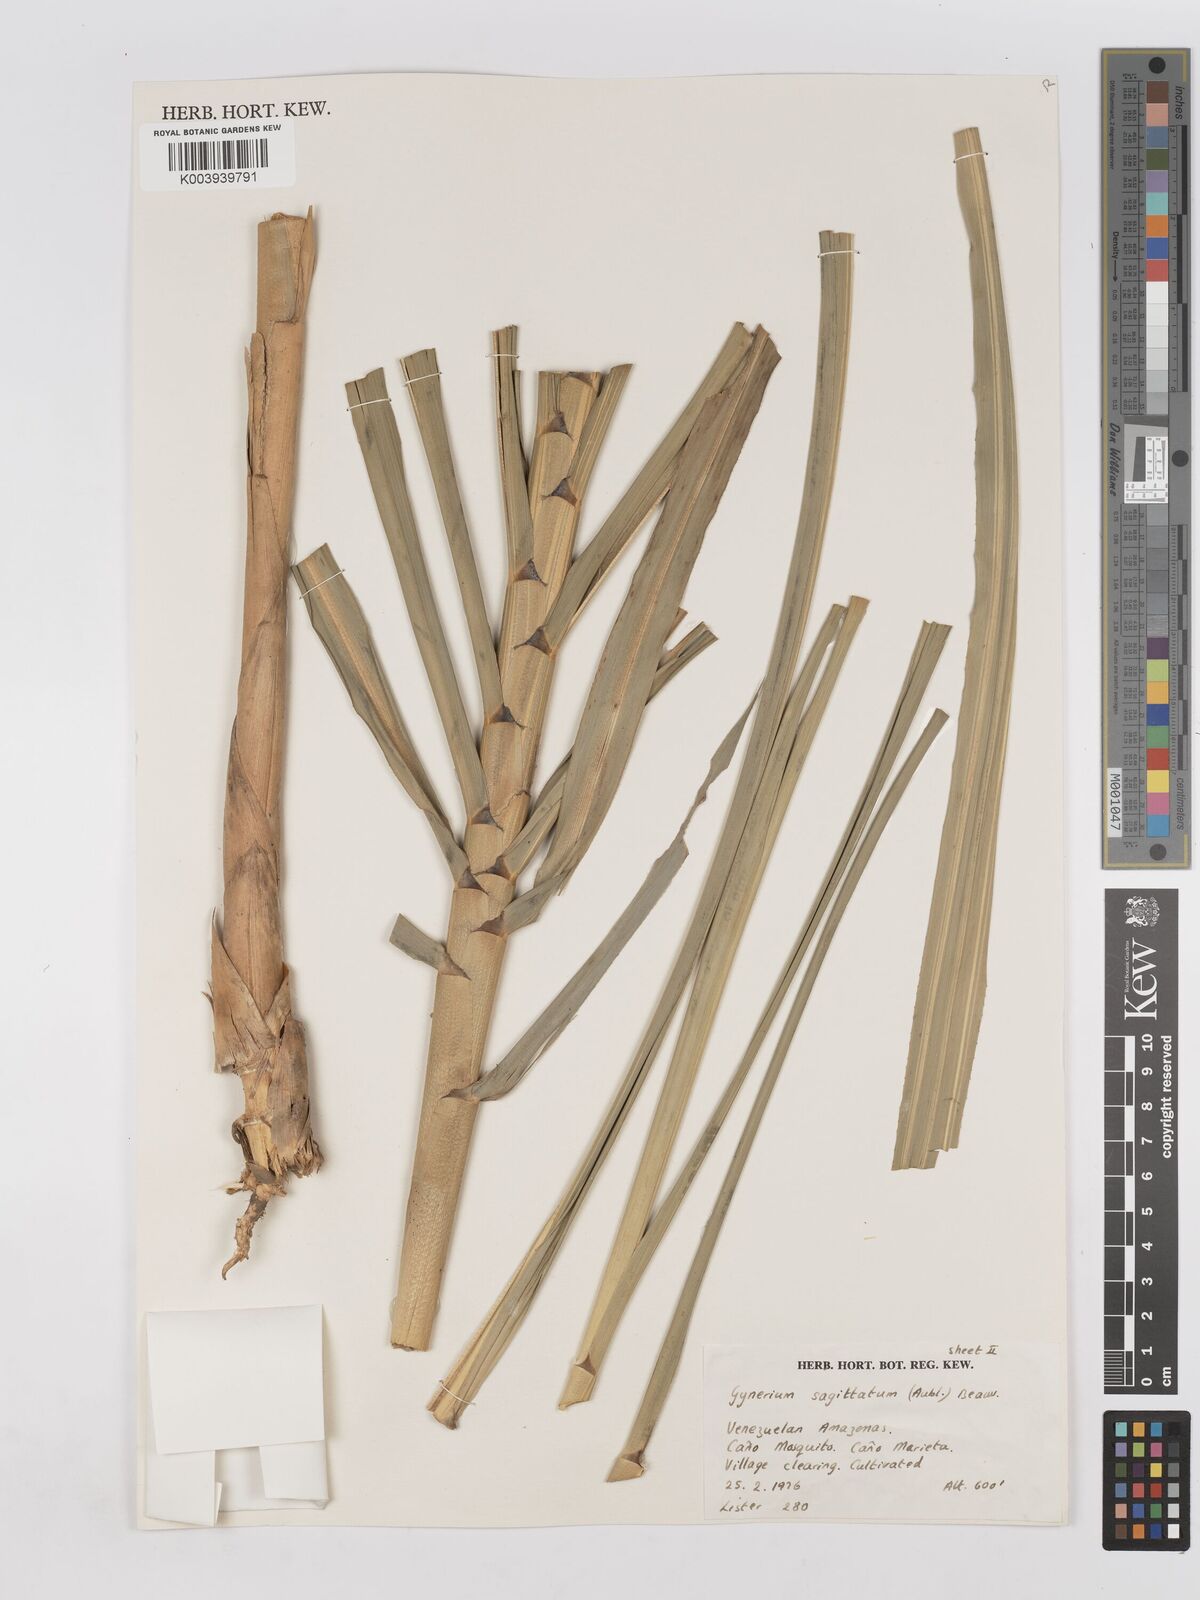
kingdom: Plantae
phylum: Tracheophyta
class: Liliopsida
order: Poales
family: Poaceae
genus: Gynerium
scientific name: Gynerium sagittatum
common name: Wild cane
